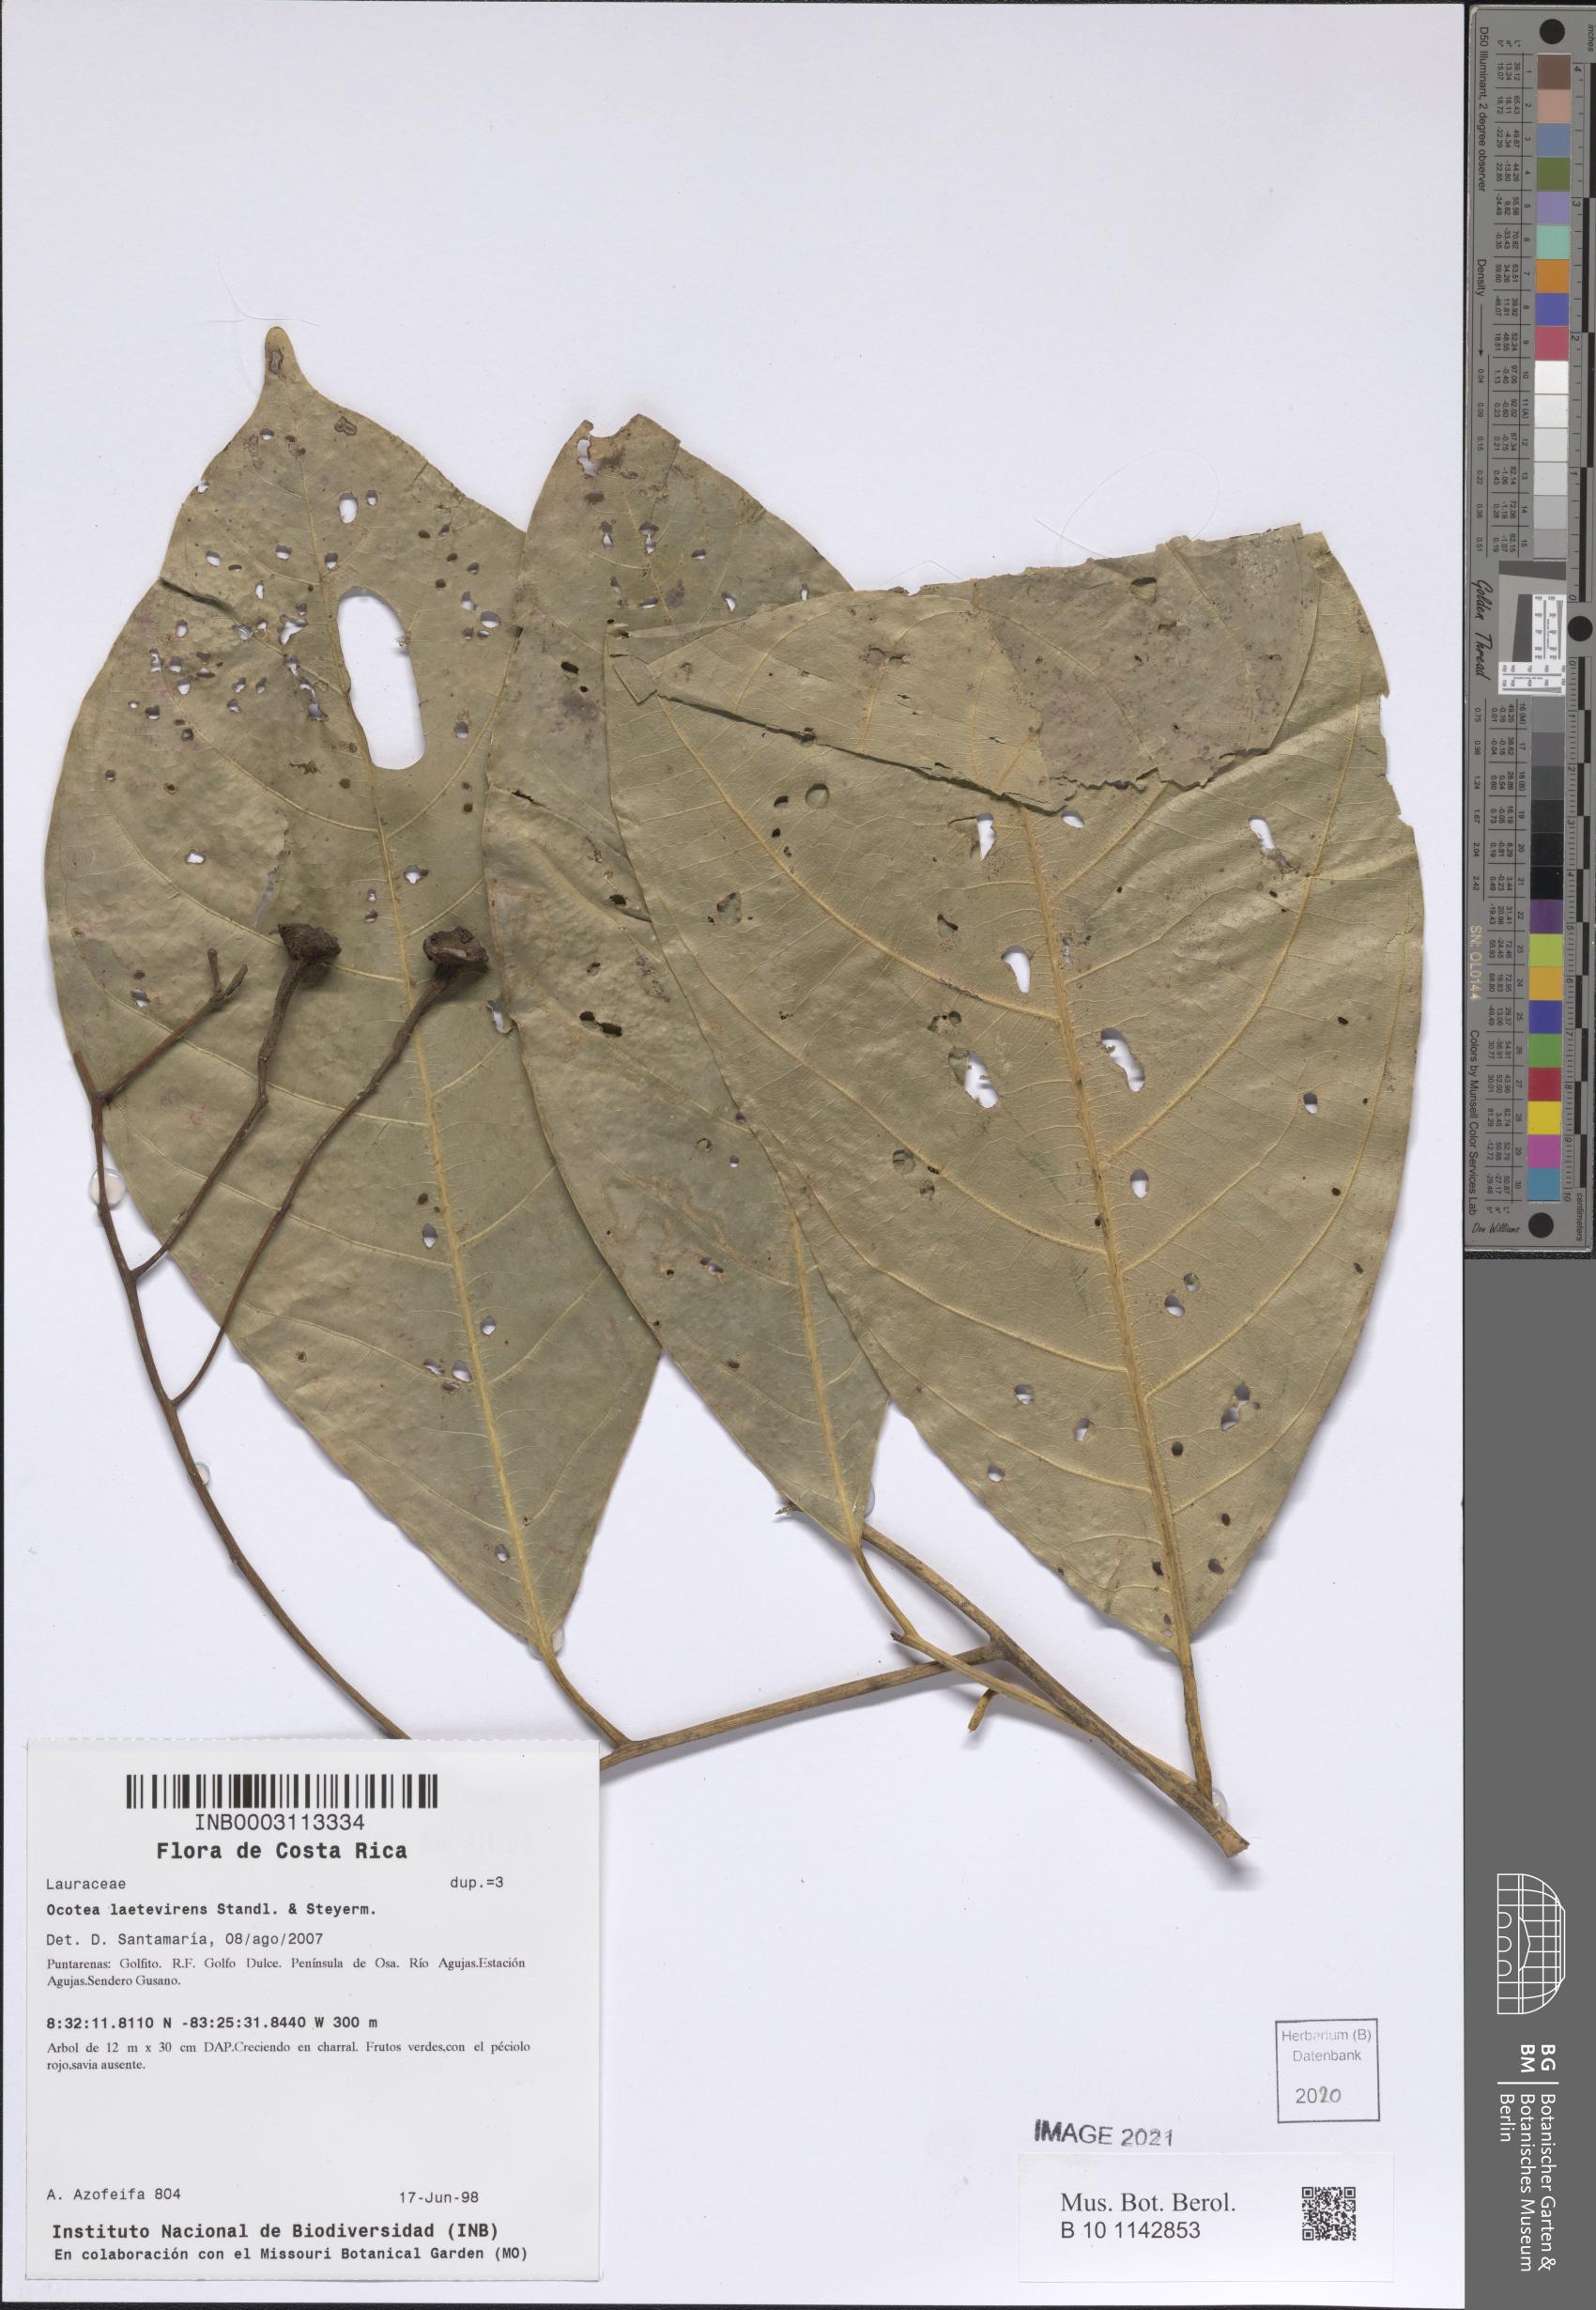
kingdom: Plantae
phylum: Tracheophyta
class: Magnoliopsida
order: Laurales
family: Lauraceae
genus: Ocotea
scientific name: Ocotea laetevirens
